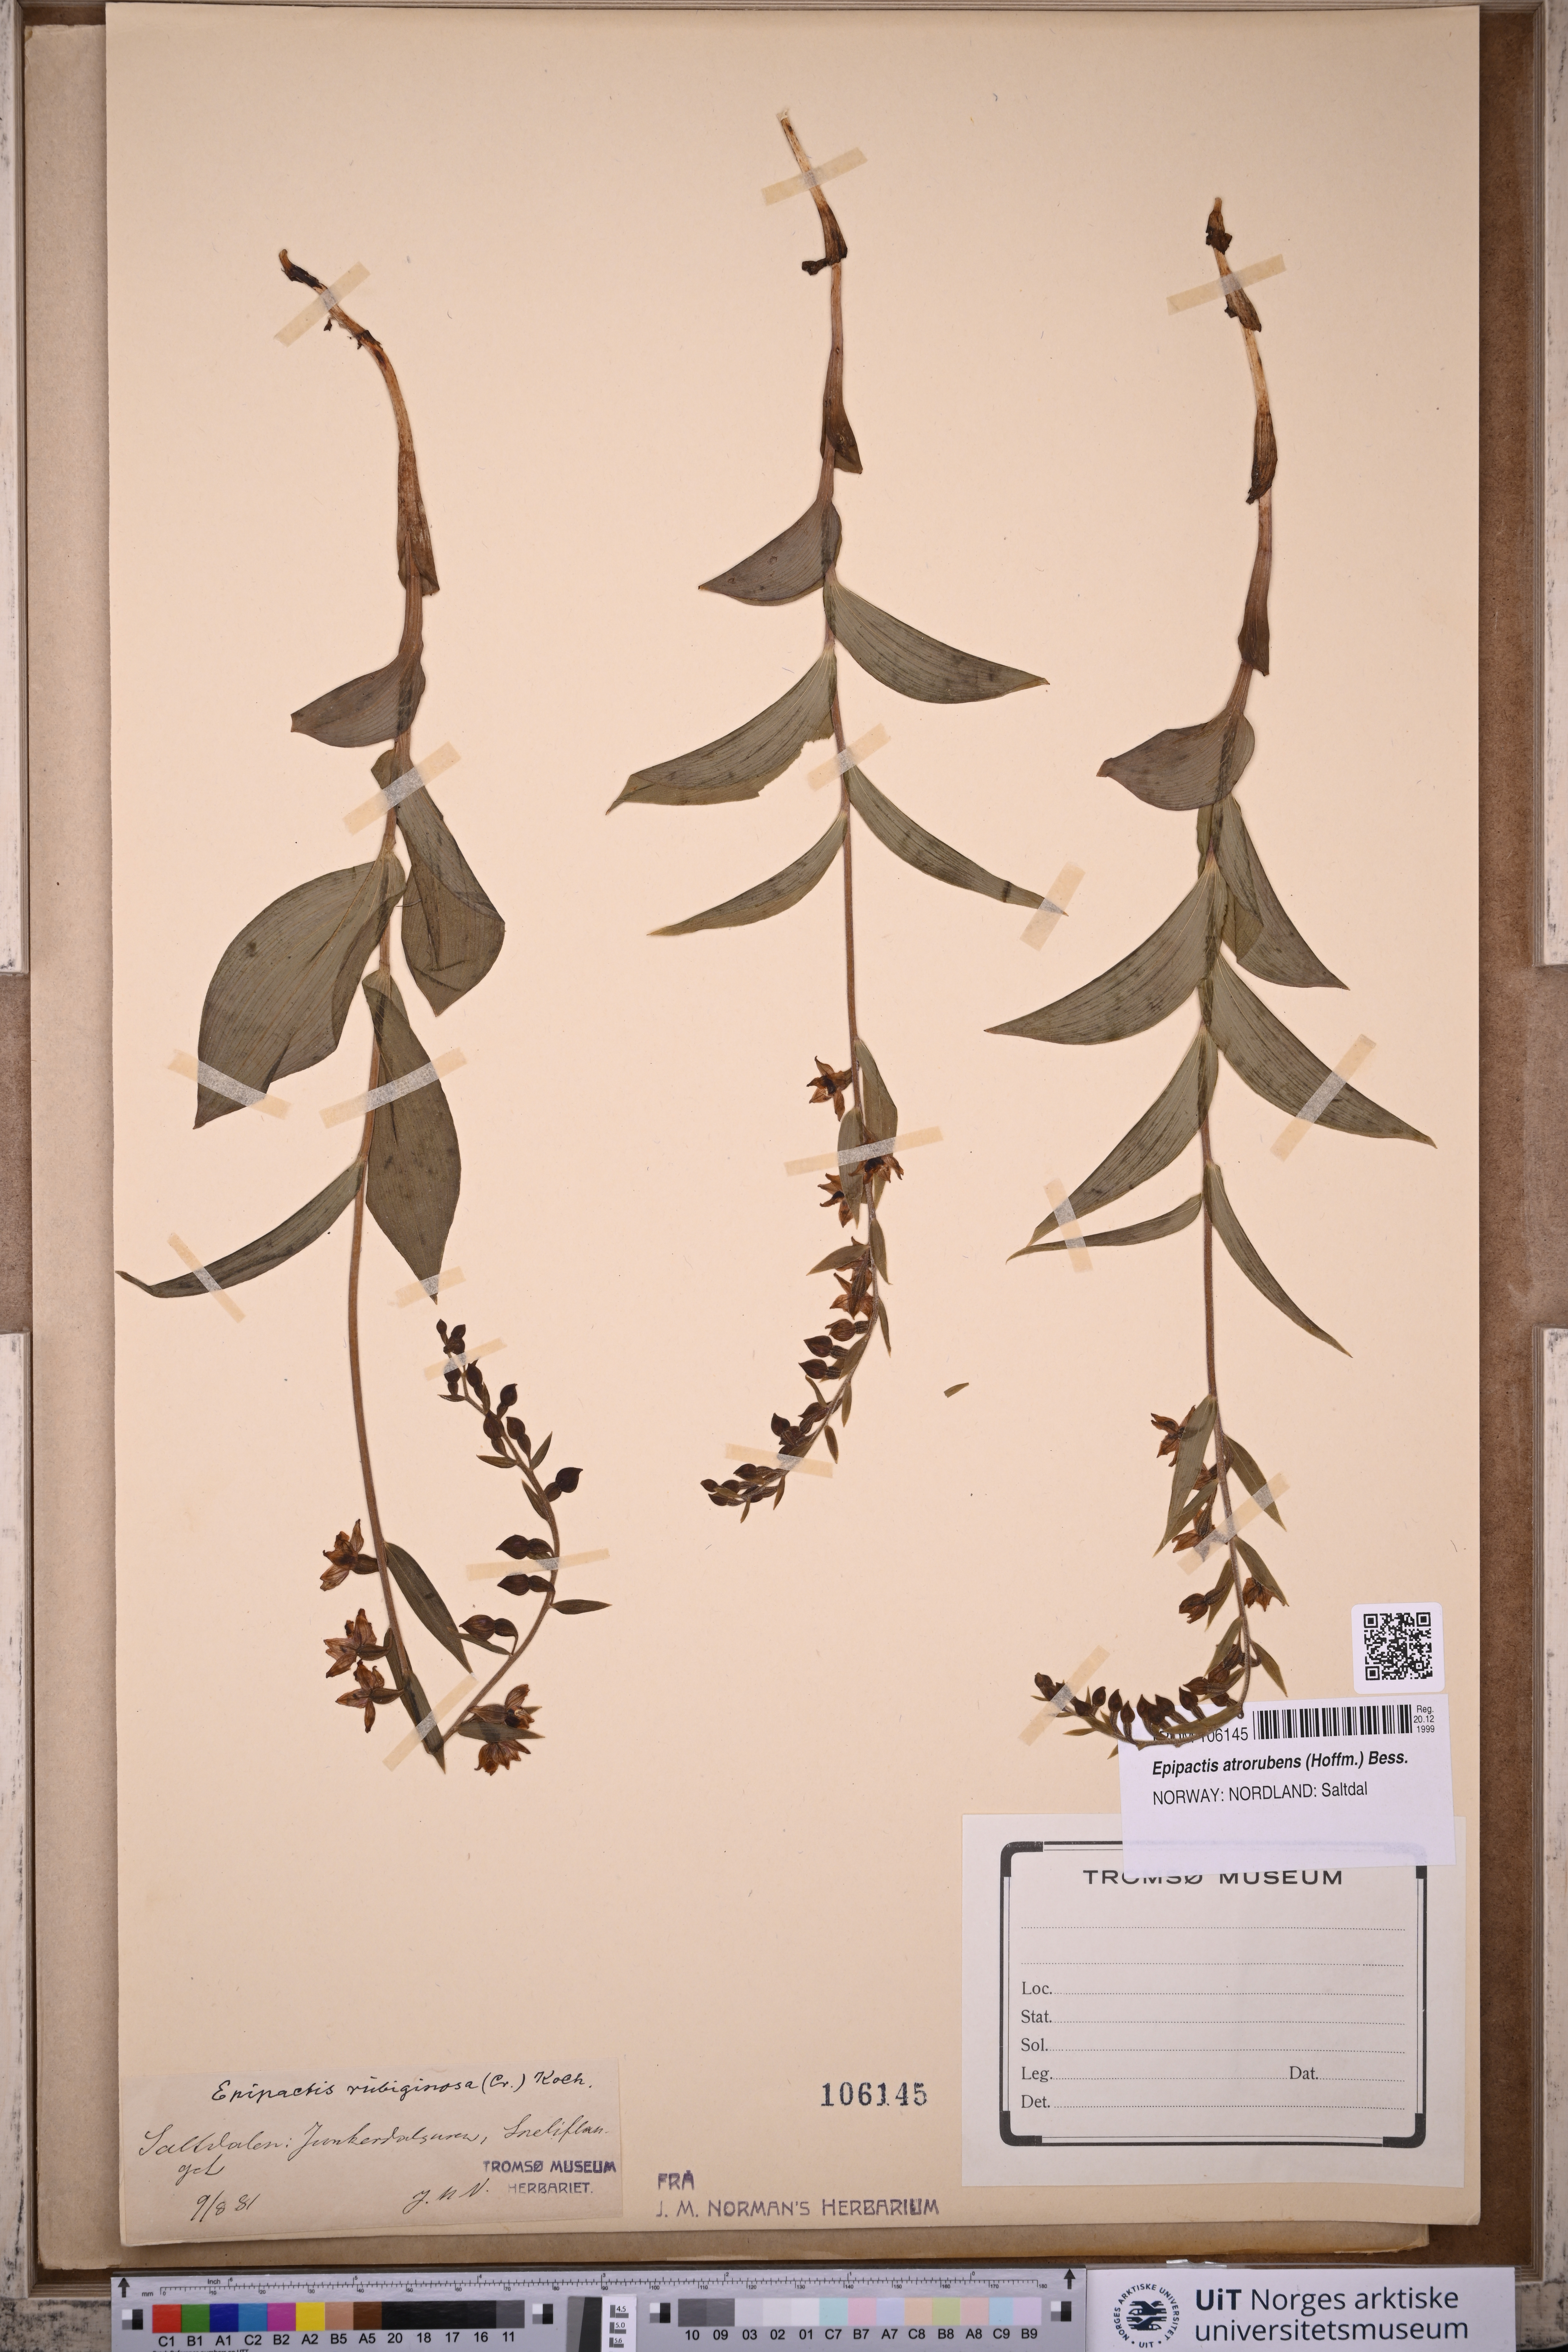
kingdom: Plantae
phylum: Tracheophyta
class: Liliopsida
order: Asparagales
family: Orchidaceae
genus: Epipactis
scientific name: Epipactis atrorubens
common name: Dark-red helleborine
